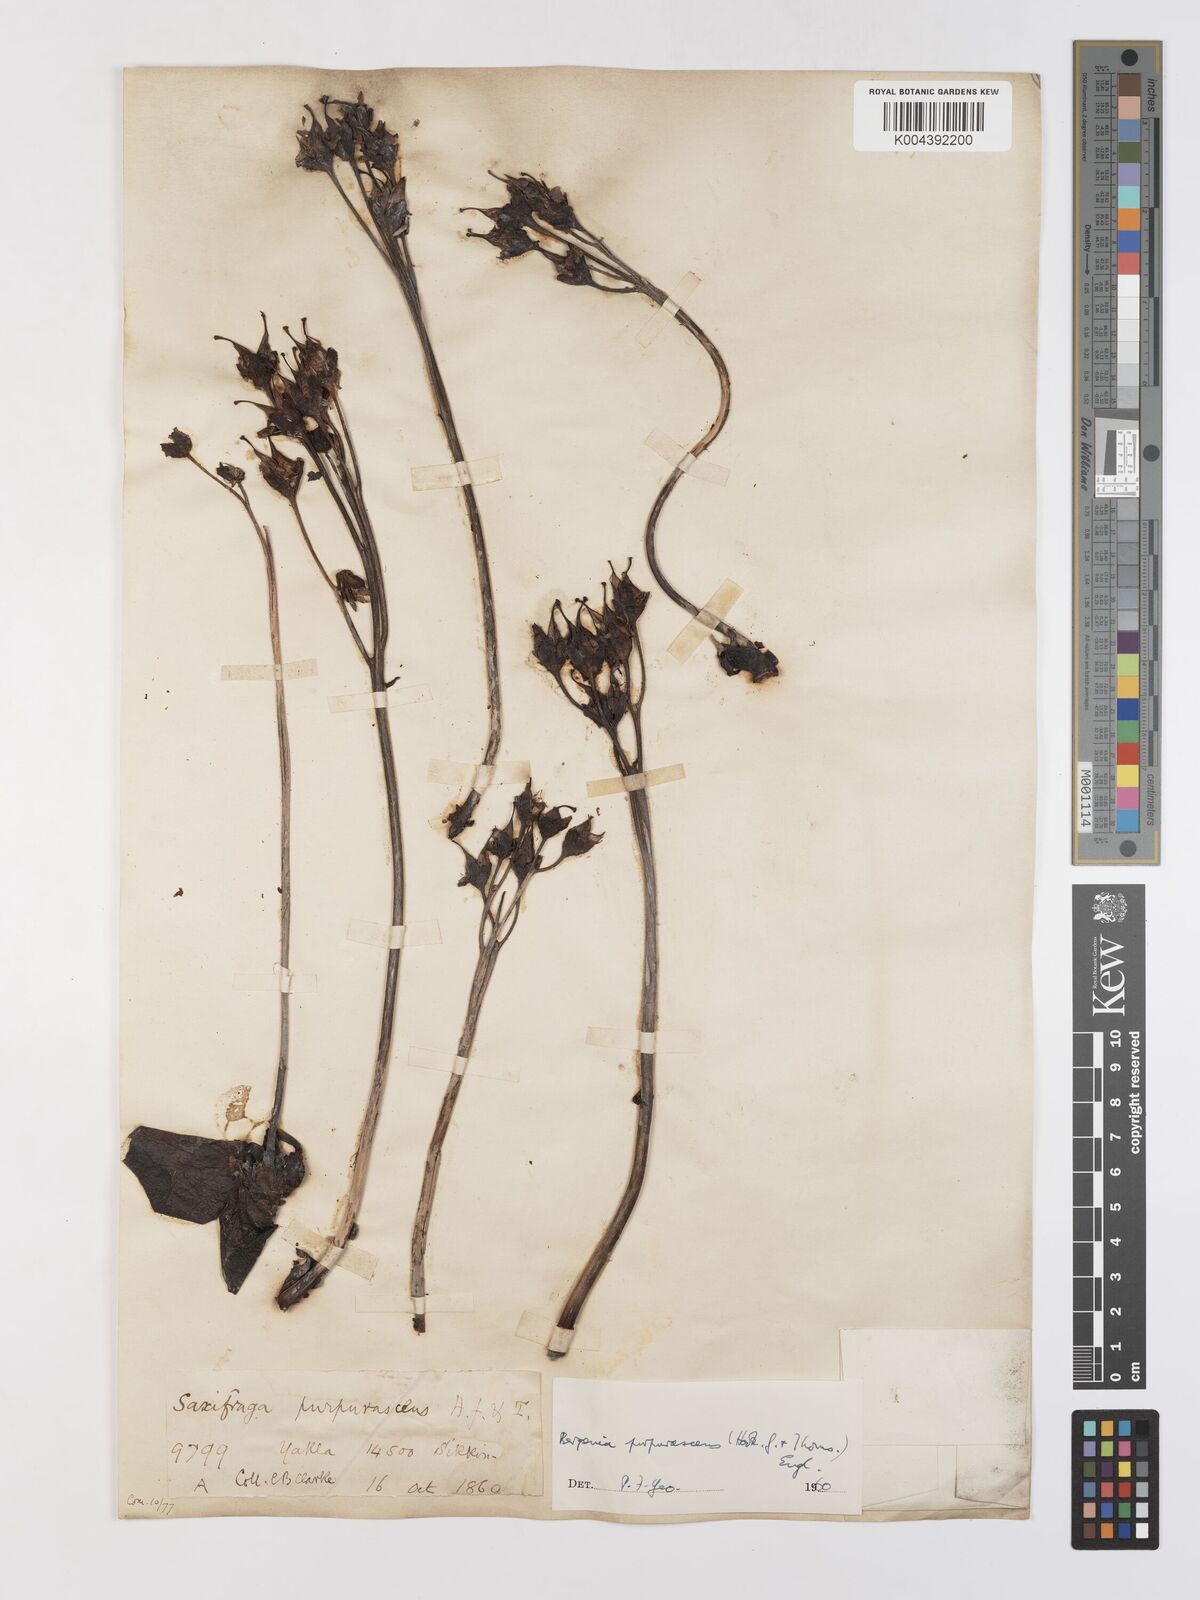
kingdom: Plantae
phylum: Tracheophyta
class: Magnoliopsida
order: Saxifragales
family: Saxifragaceae
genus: Bergenia
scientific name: Bergenia purpurascens
